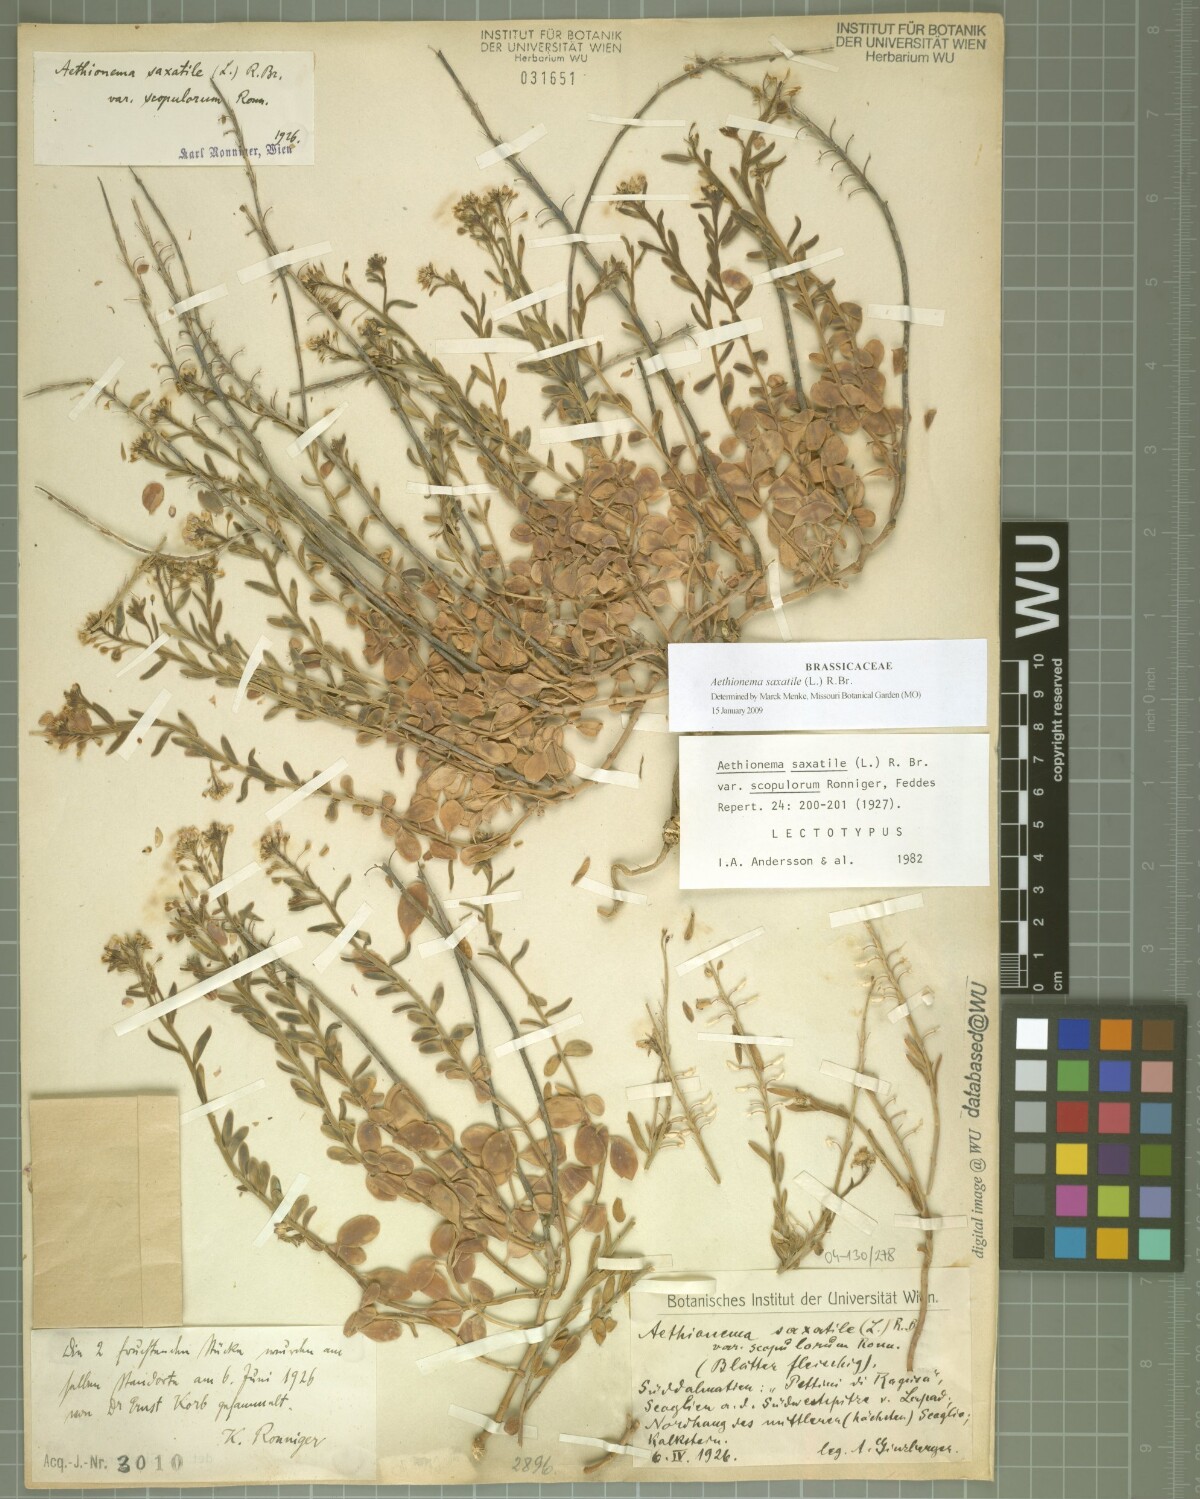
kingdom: Plantae
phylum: Tracheophyta
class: Magnoliopsida
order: Brassicales
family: Brassicaceae
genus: Aethionema
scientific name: Aethionema saxatile
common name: Burnt candytuft
